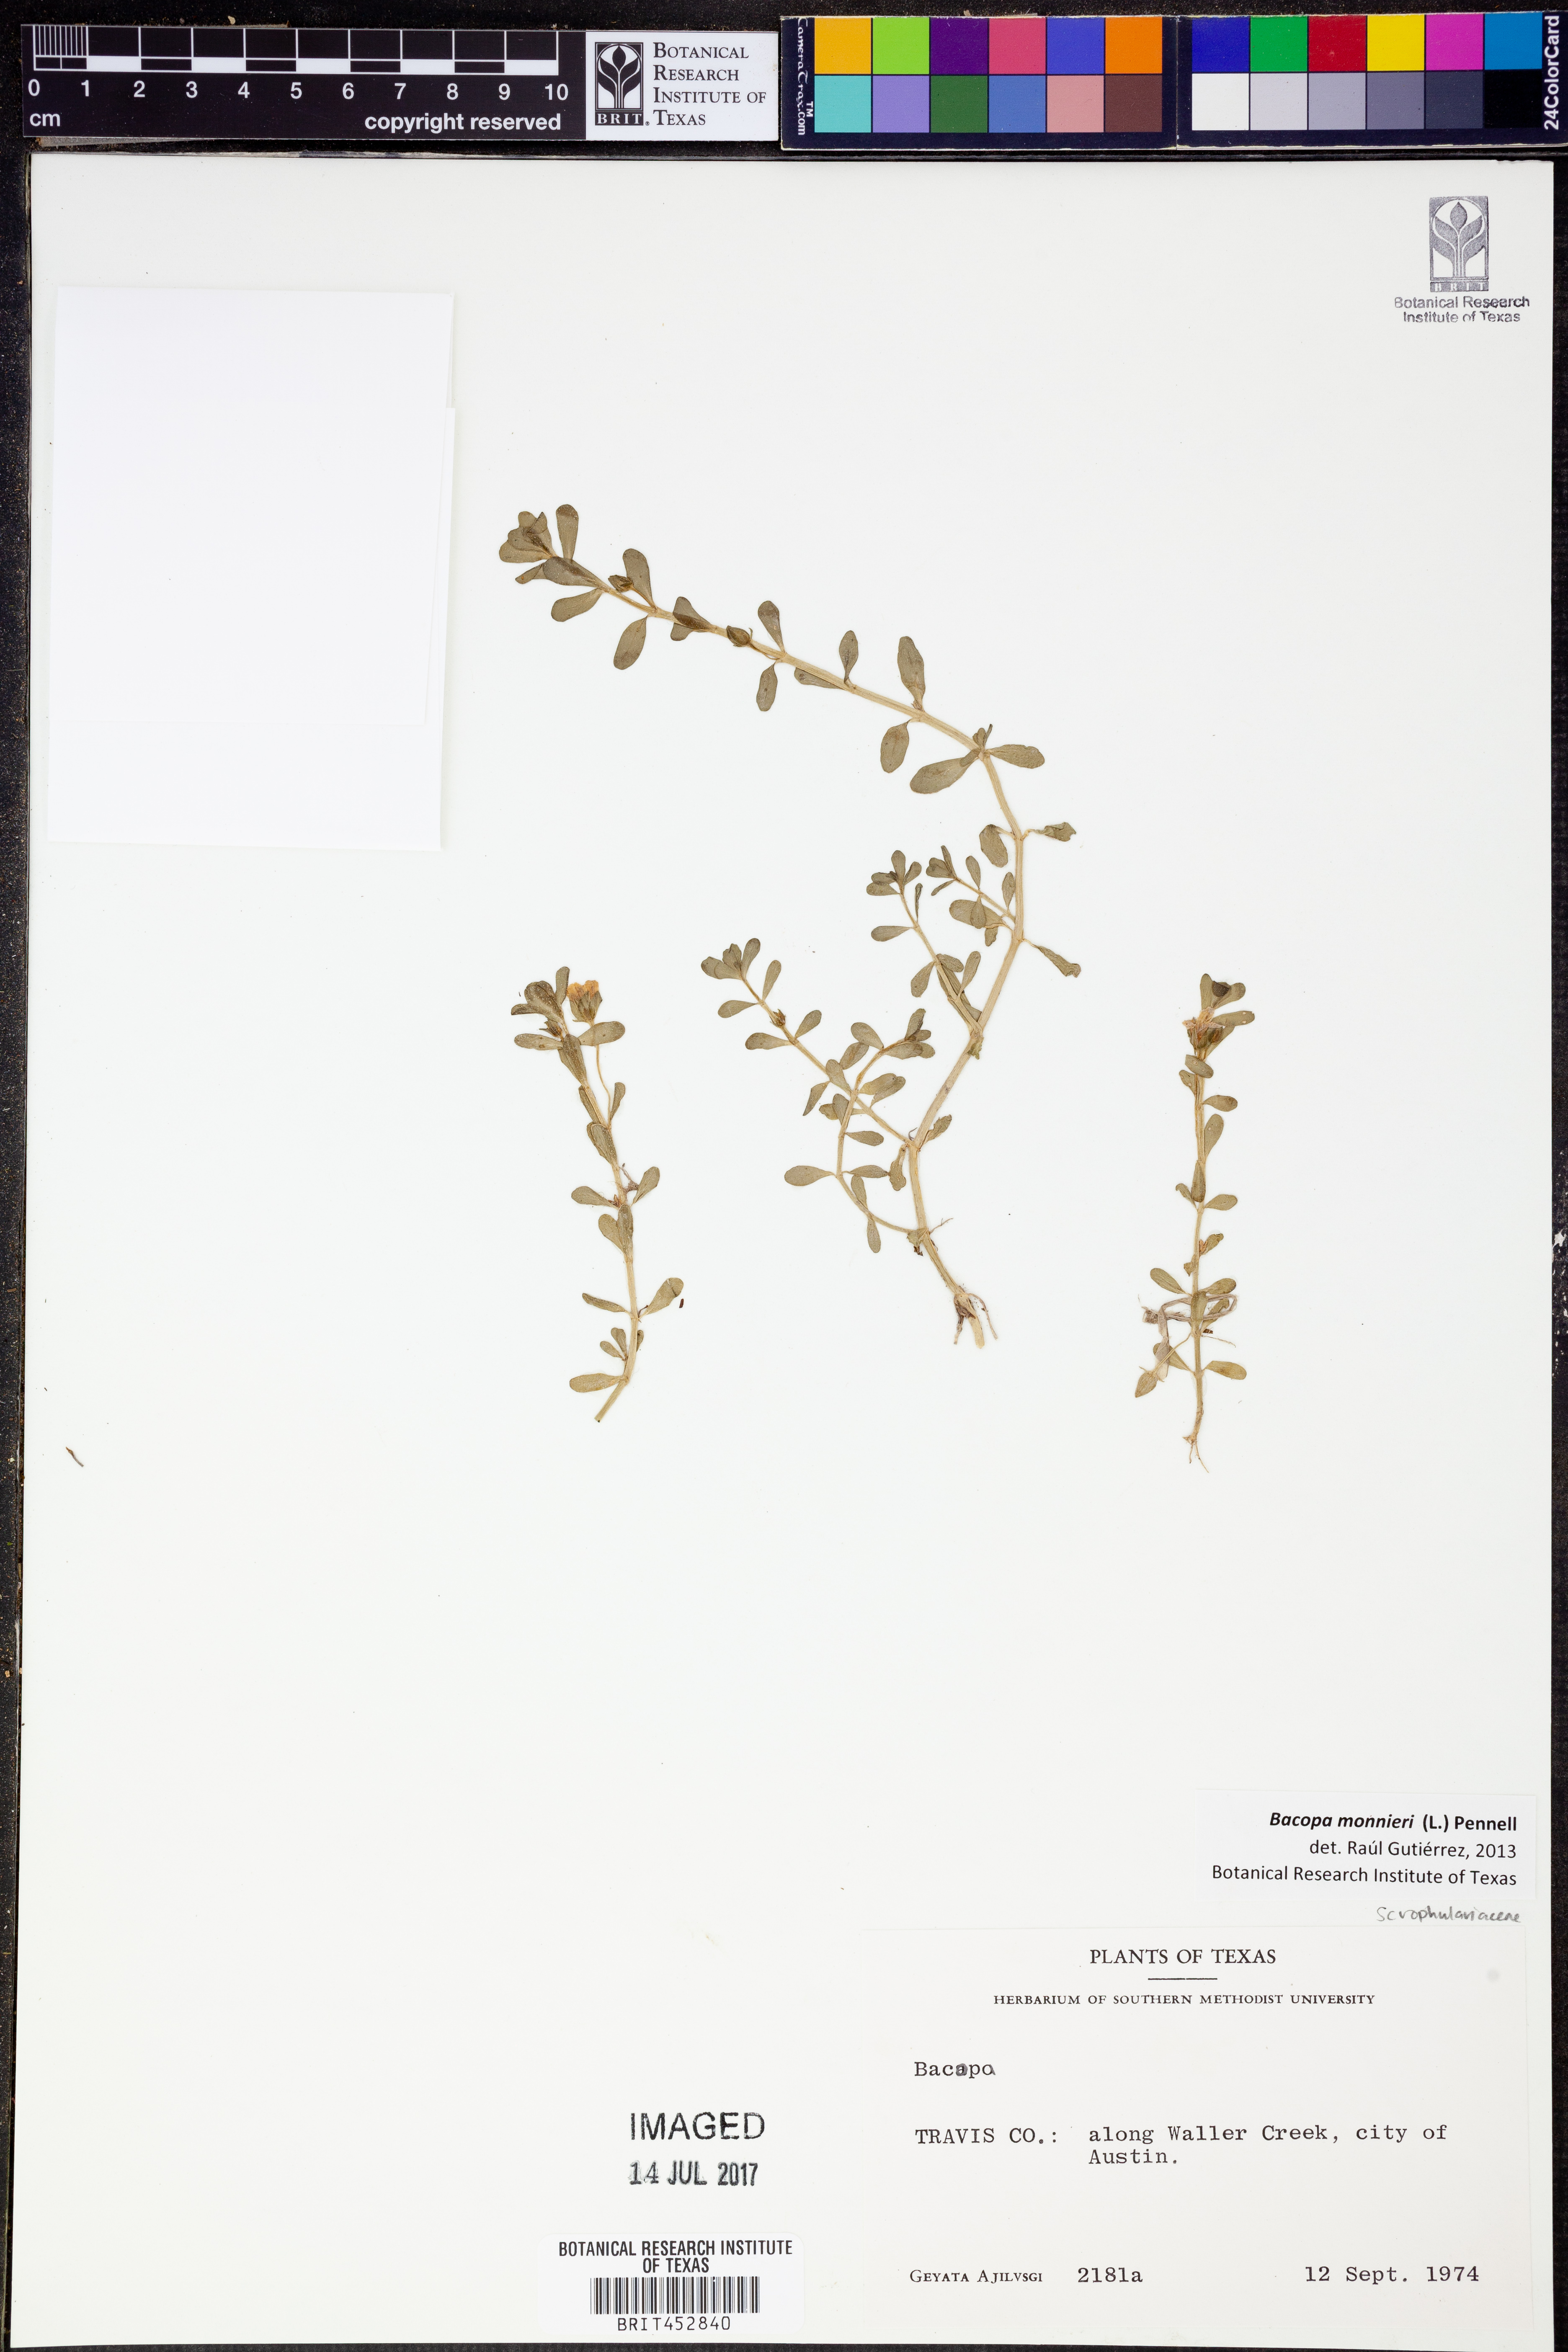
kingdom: Plantae
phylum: Tracheophyta
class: Magnoliopsida
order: Lamiales
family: Plantaginaceae
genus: Bacopa
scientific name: Bacopa monnieri
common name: Indian-pennywort
